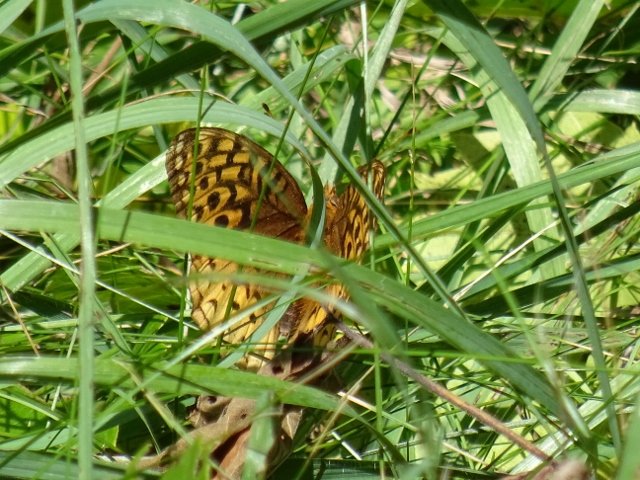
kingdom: Animalia
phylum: Arthropoda
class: Insecta
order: Lepidoptera
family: Nymphalidae
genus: Speyeria
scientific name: Speyeria cybele
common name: Great Spangled Fritillary
